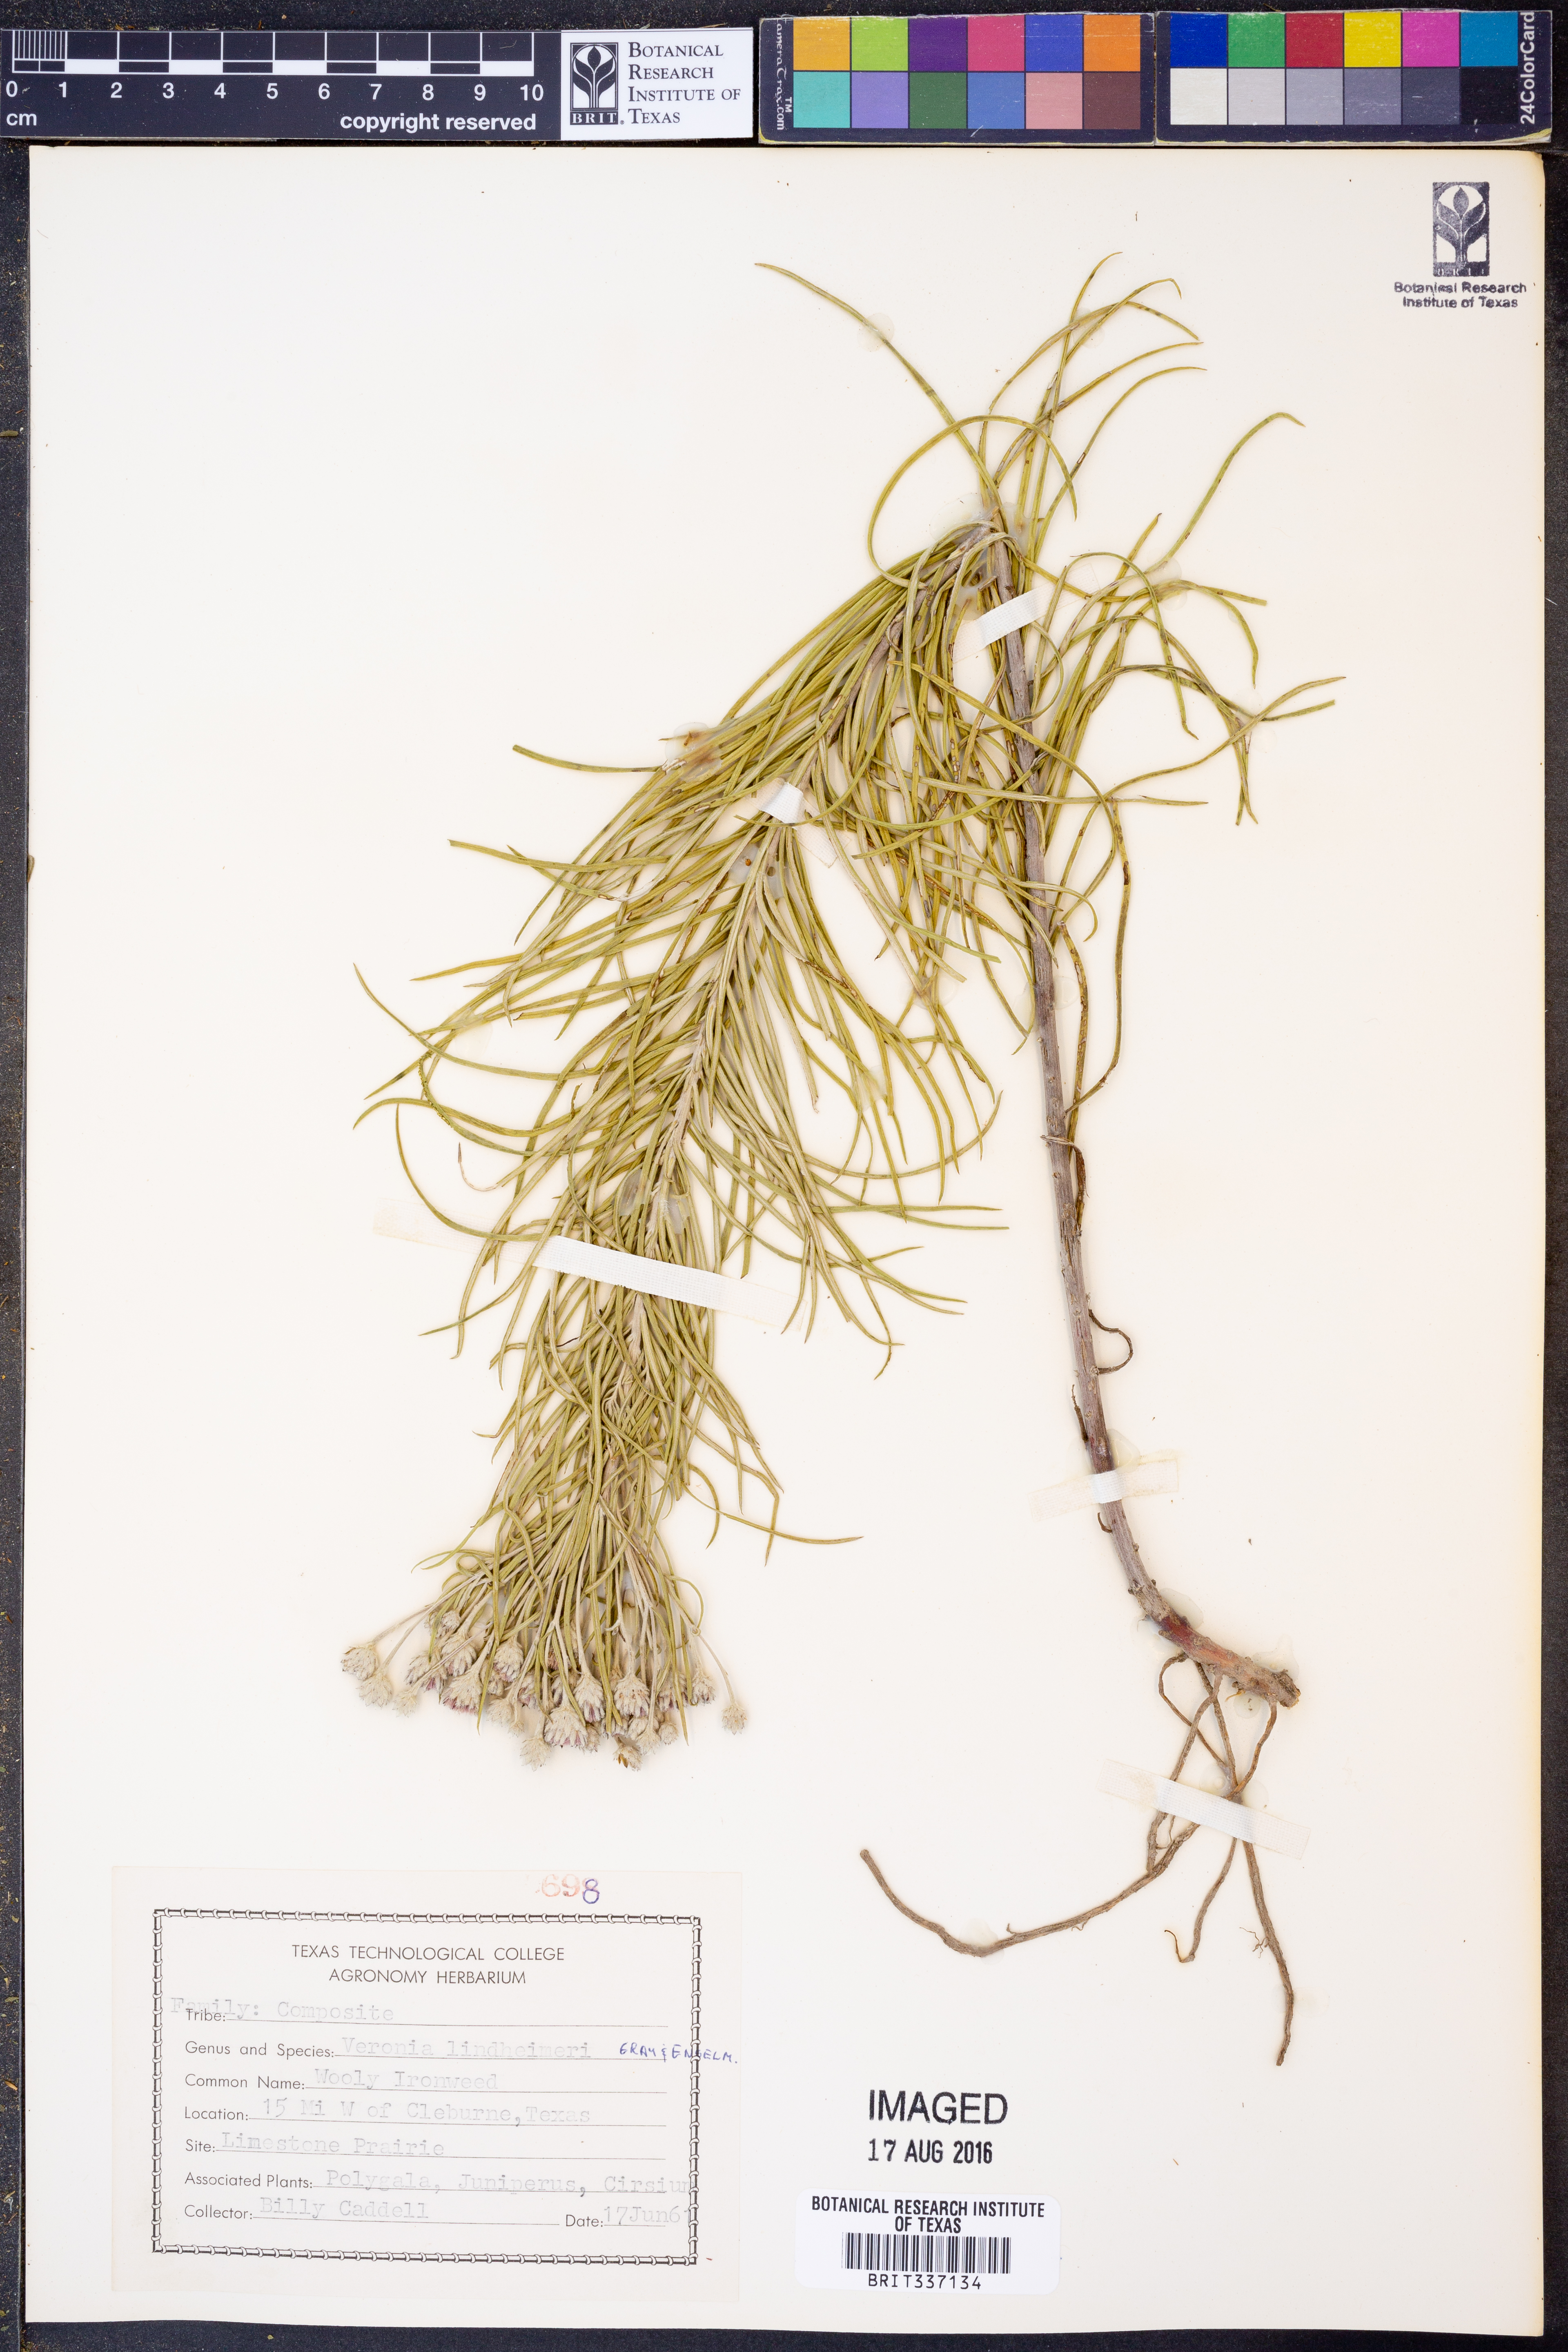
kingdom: Plantae
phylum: Tracheophyta
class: Magnoliopsida
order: Asterales
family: Asteraceae
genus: Vernonia
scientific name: Vernonia lindheimeri
